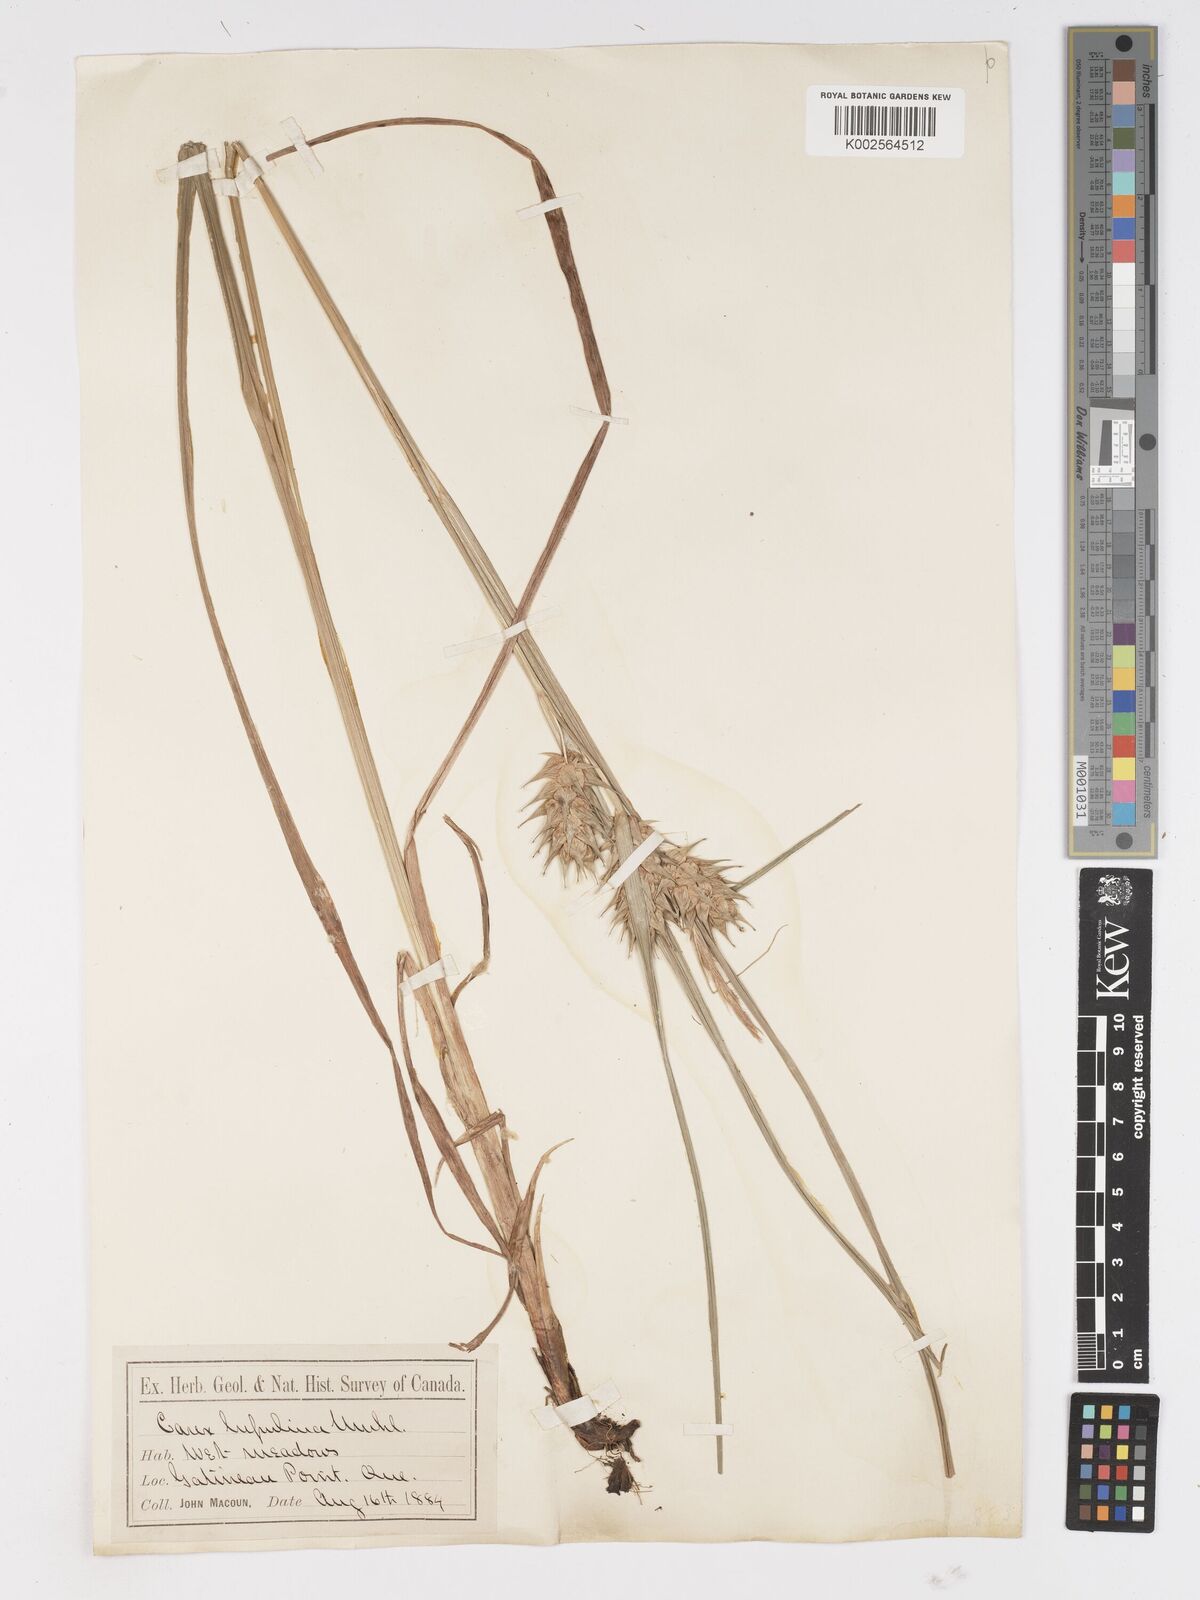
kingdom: Plantae
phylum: Tracheophyta
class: Liliopsida
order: Poales
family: Cyperaceae
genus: Carex
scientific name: Carex lupulina
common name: Hop sedge
